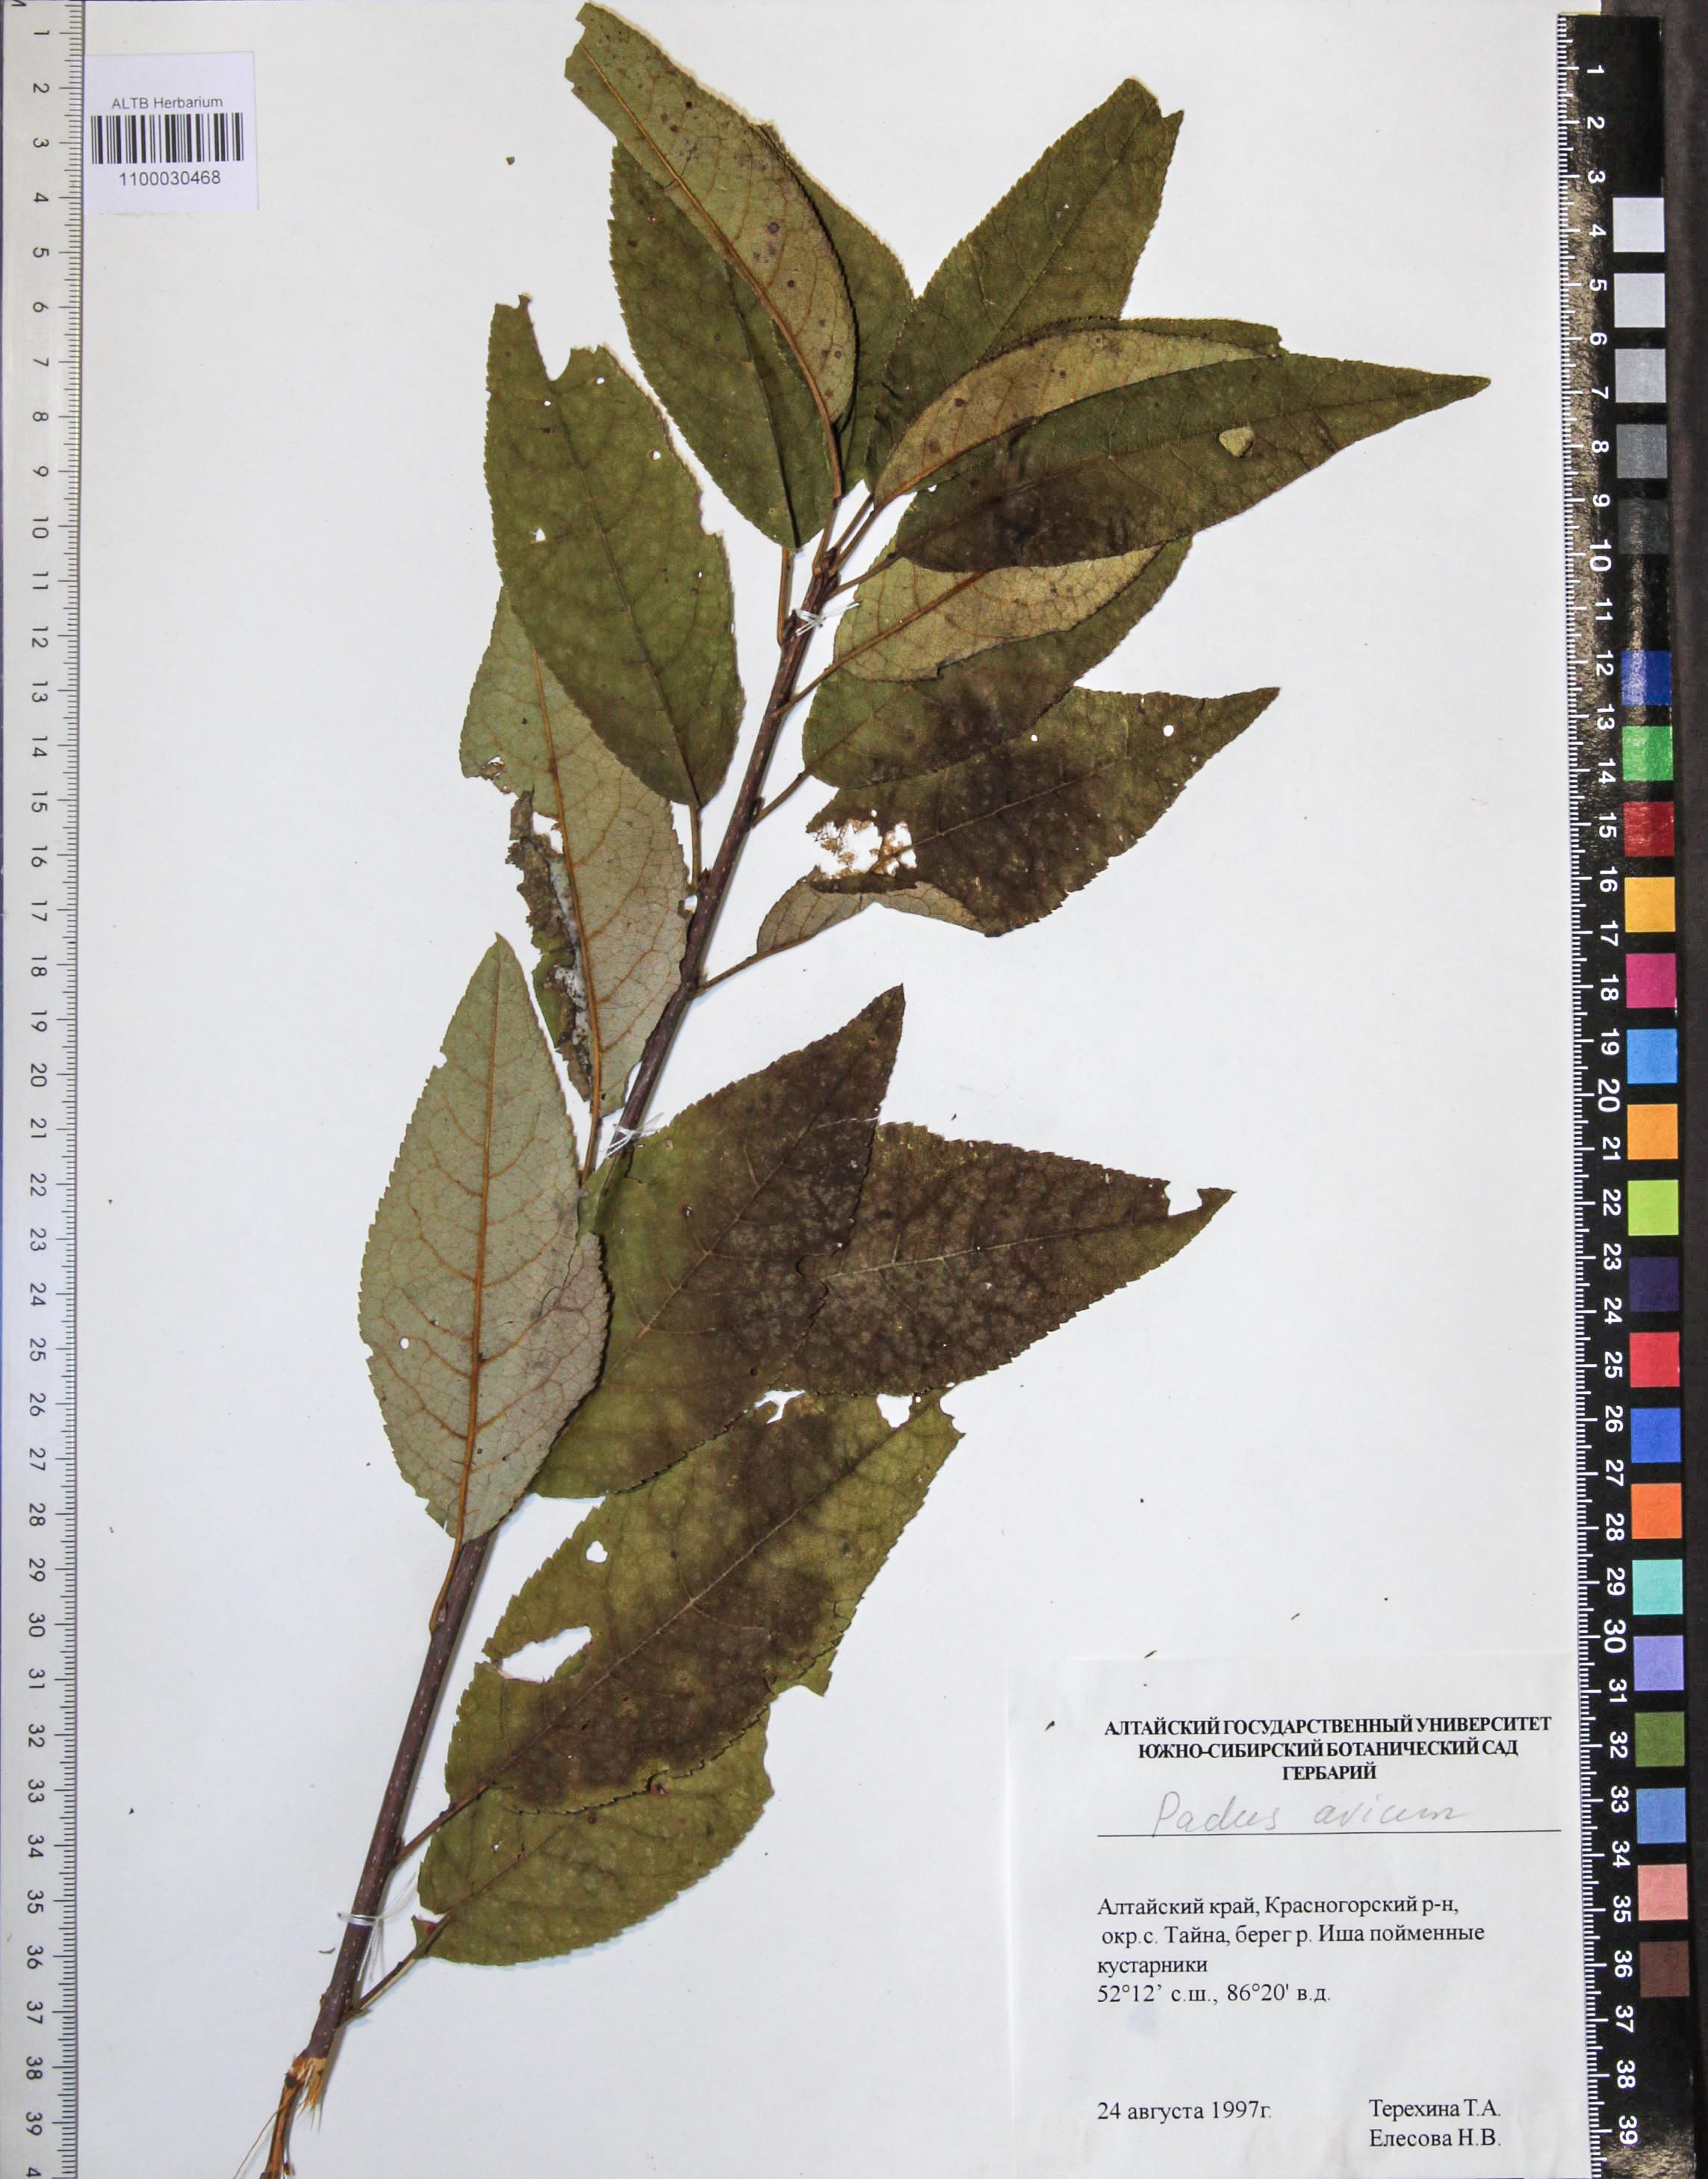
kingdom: Plantae
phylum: Tracheophyta
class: Magnoliopsida
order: Rosales
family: Rosaceae
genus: Prunus
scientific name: Prunus padus
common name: Bird cherry
